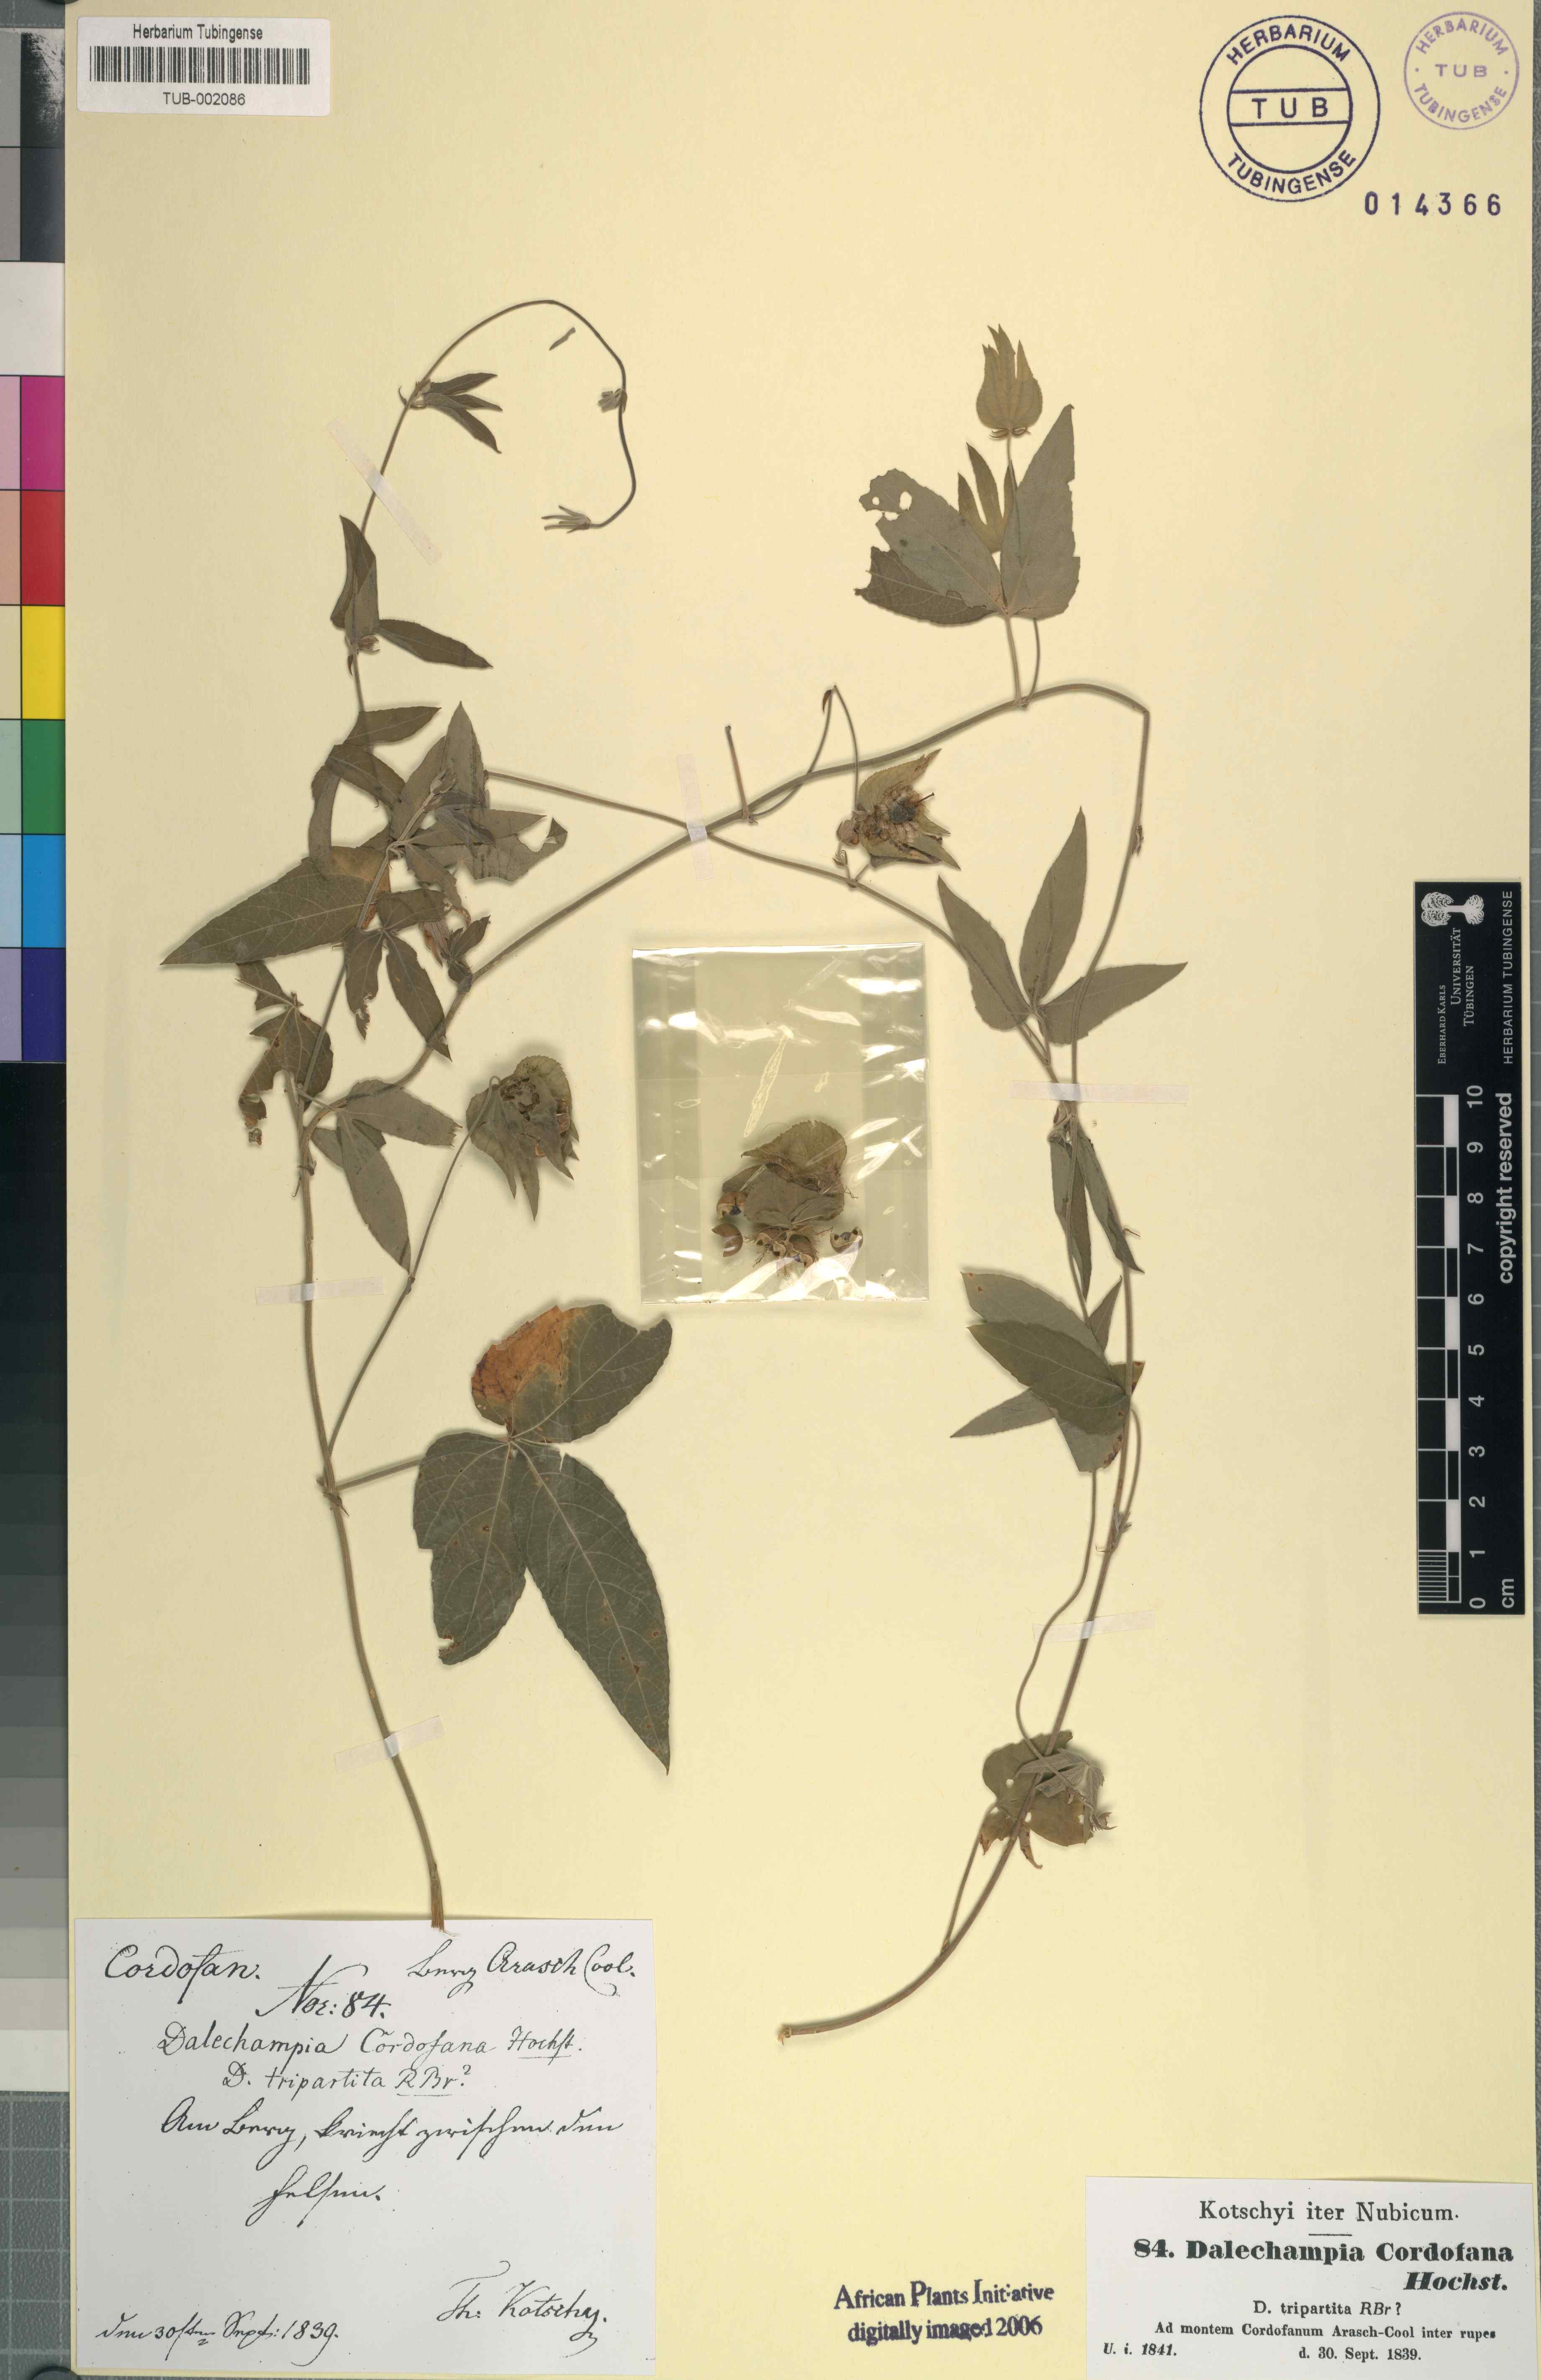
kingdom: Plantae
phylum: Tracheophyta
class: Magnoliopsida
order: Malpighiales
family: Euphorbiaceae
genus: Dalechampia
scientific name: Dalechampia scandens
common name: Spurgecreeper
